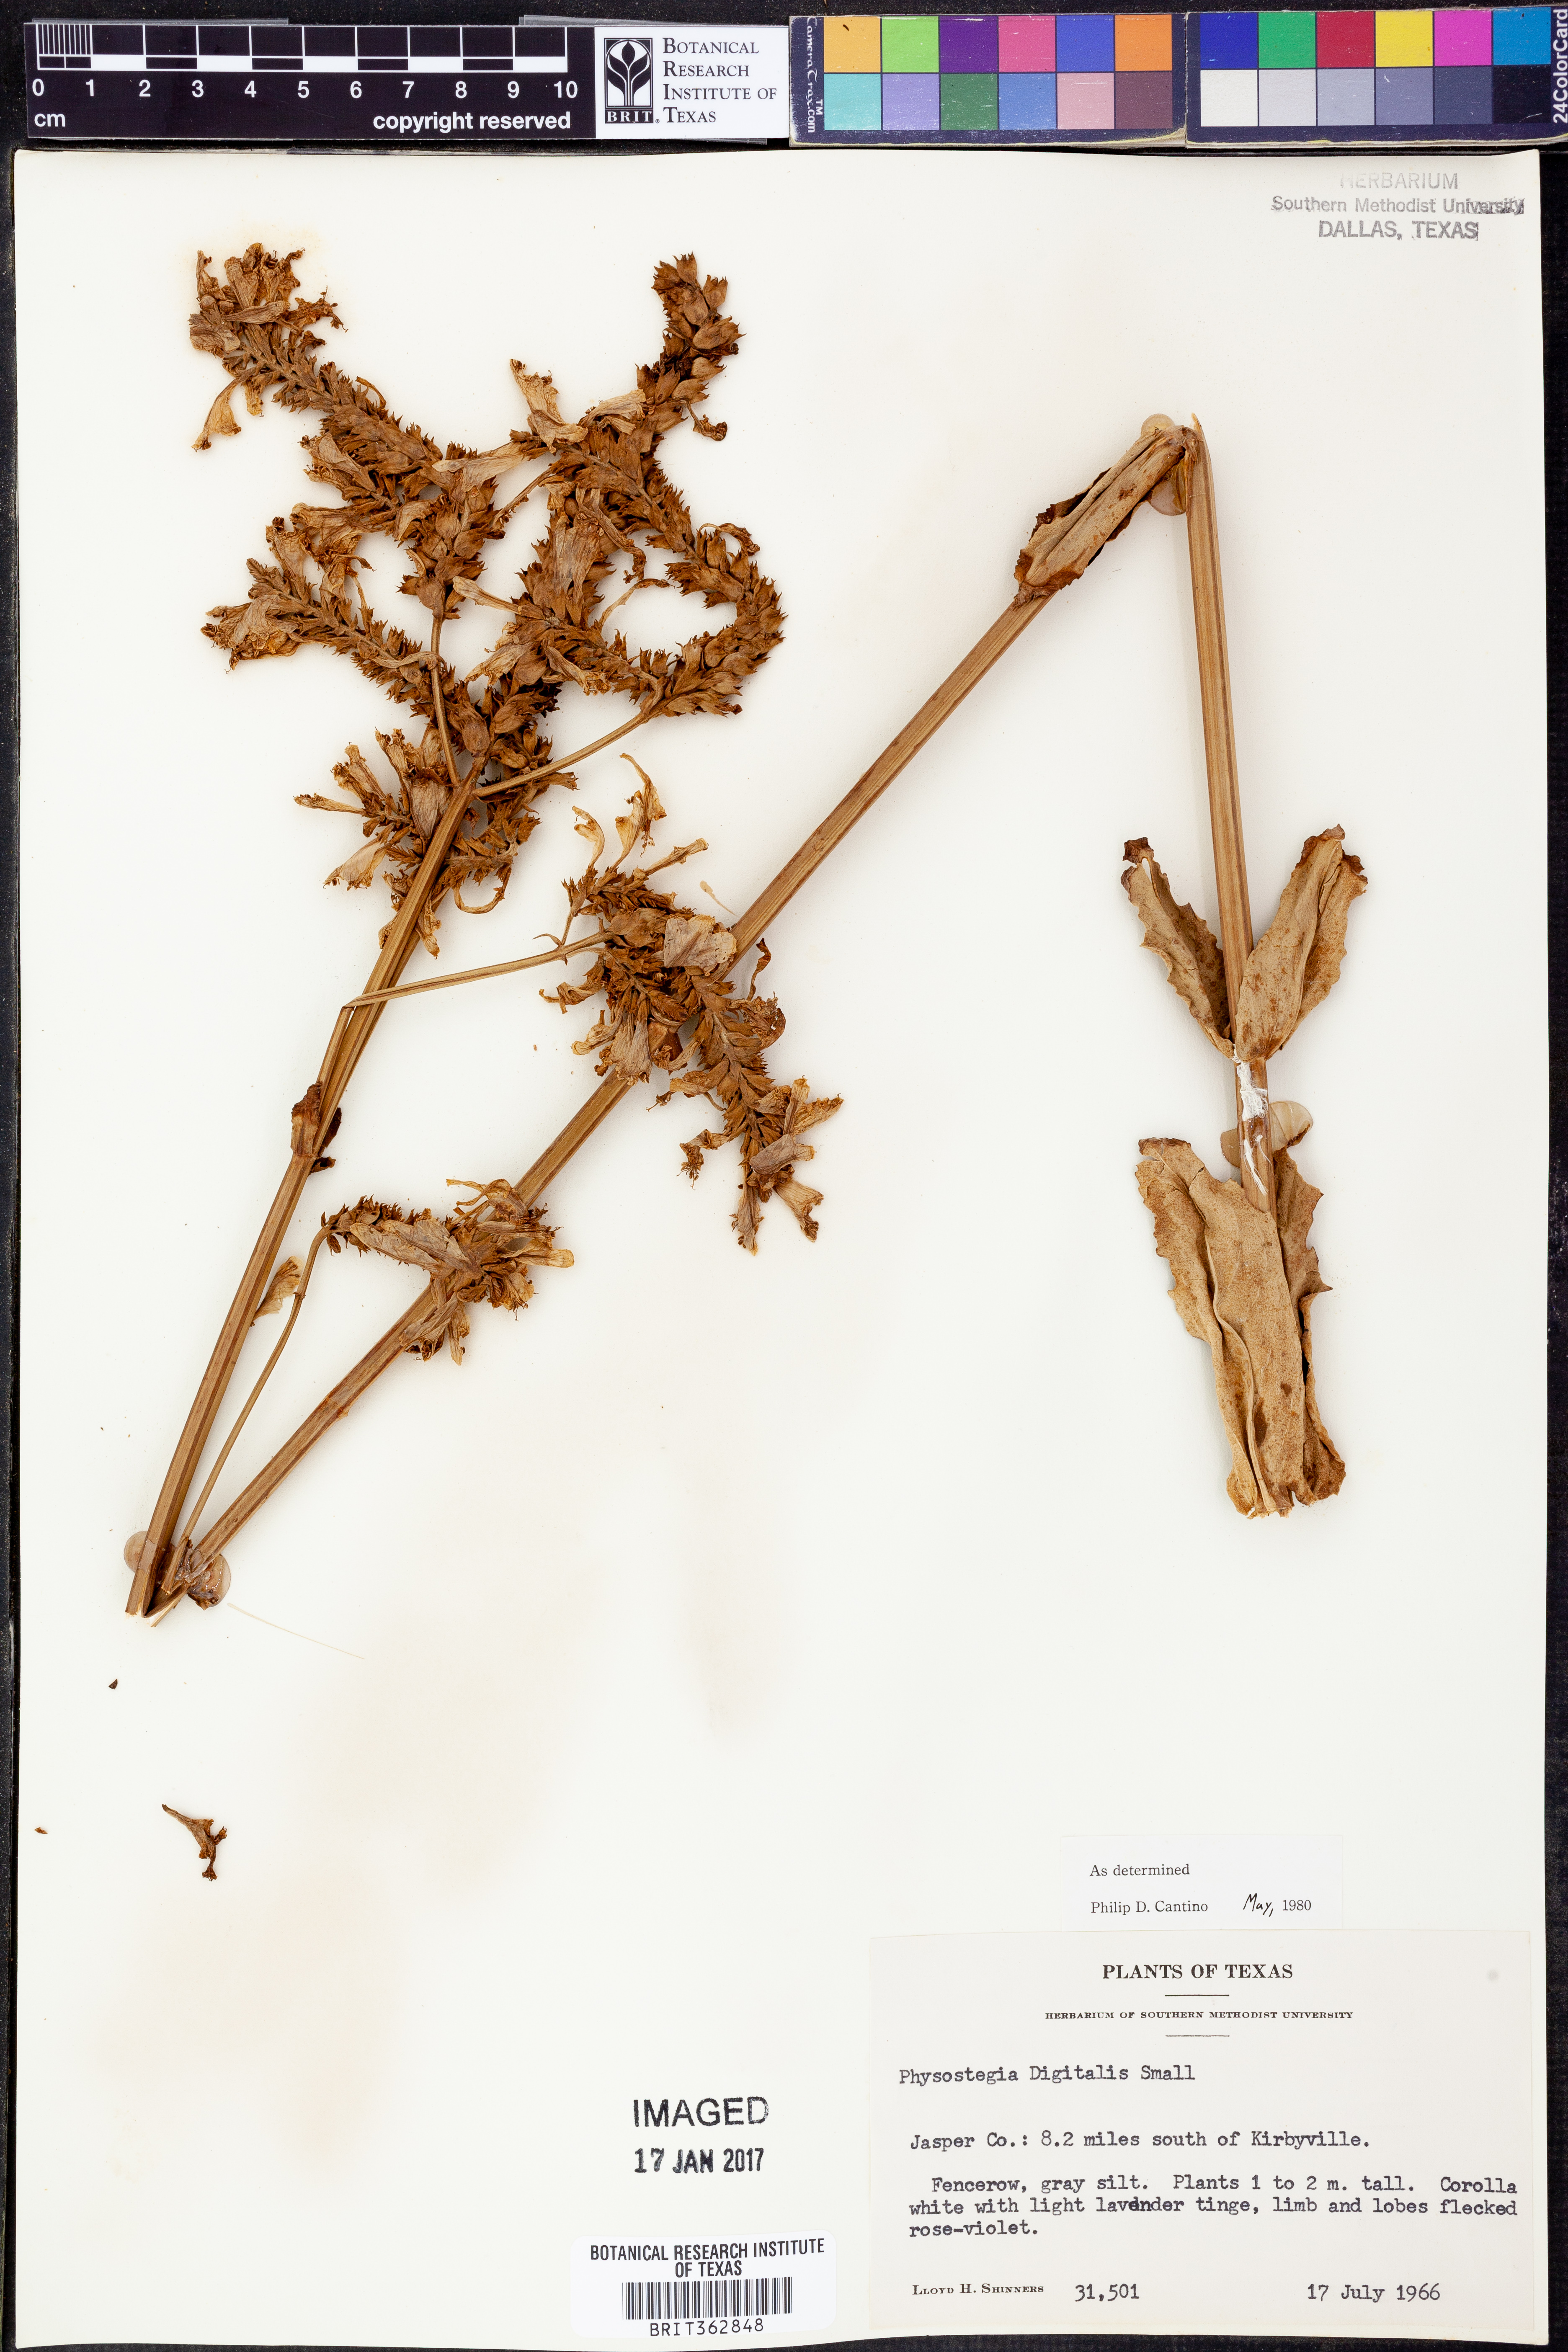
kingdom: Plantae
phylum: Tracheophyta
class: Magnoliopsida
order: Lamiales
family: Lamiaceae
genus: Physostegia
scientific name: Physostegia digitalis
